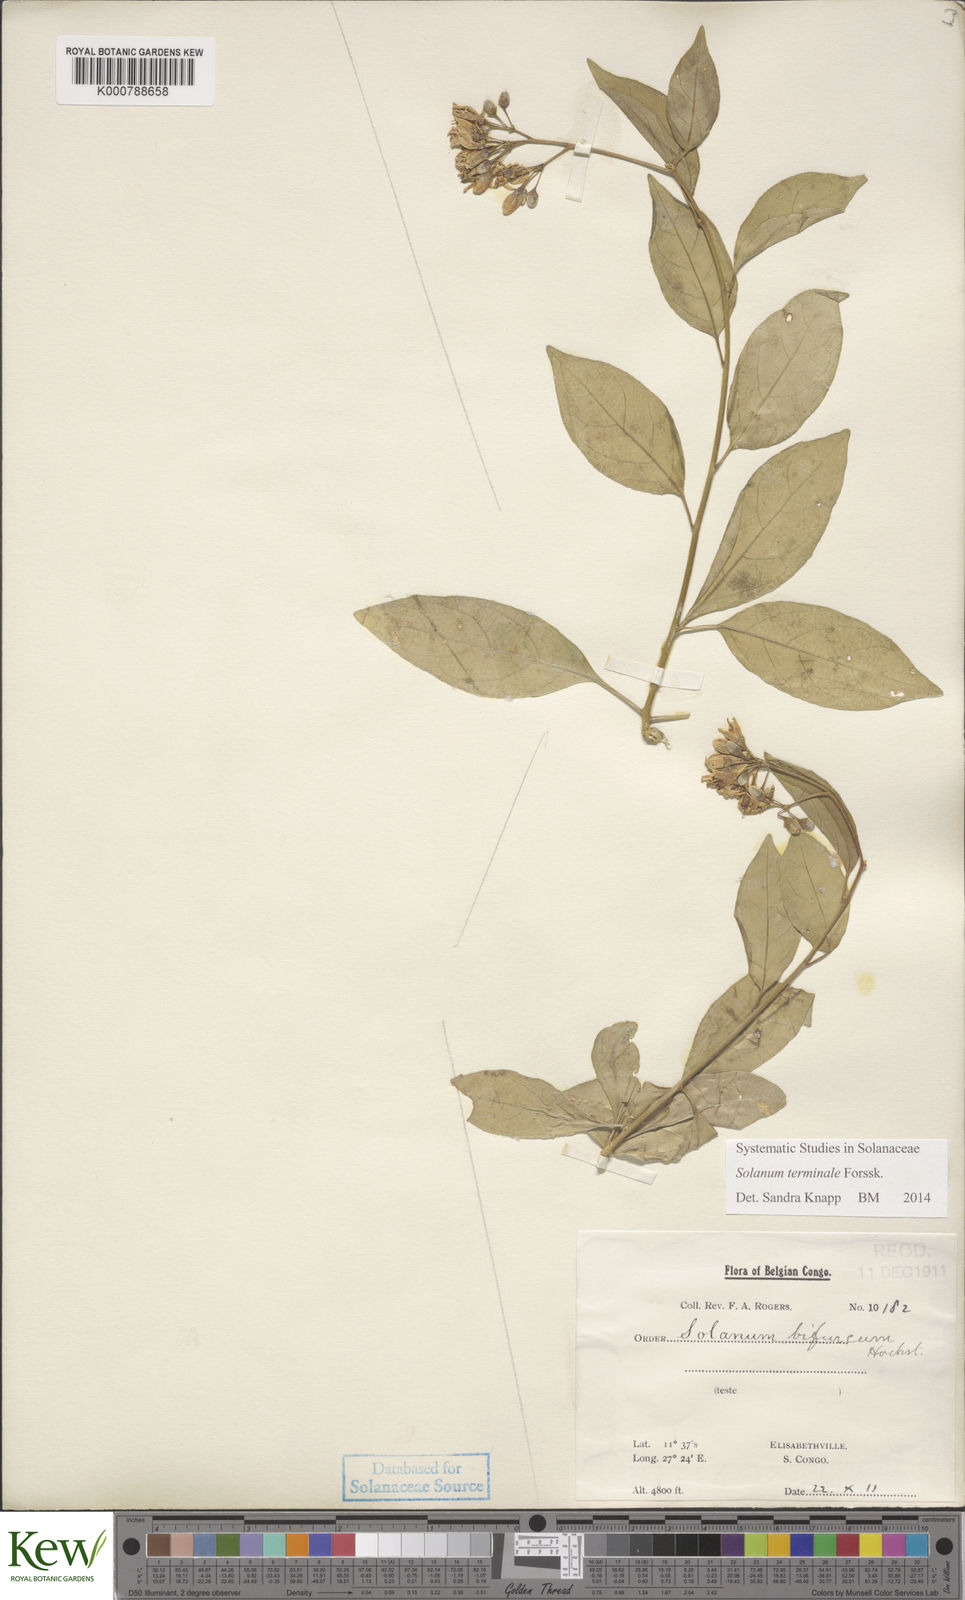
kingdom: Plantae
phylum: Tracheophyta
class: Magnoliopsida
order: Solanales
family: Solanaceae
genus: Solanum
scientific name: Solanum terminale
